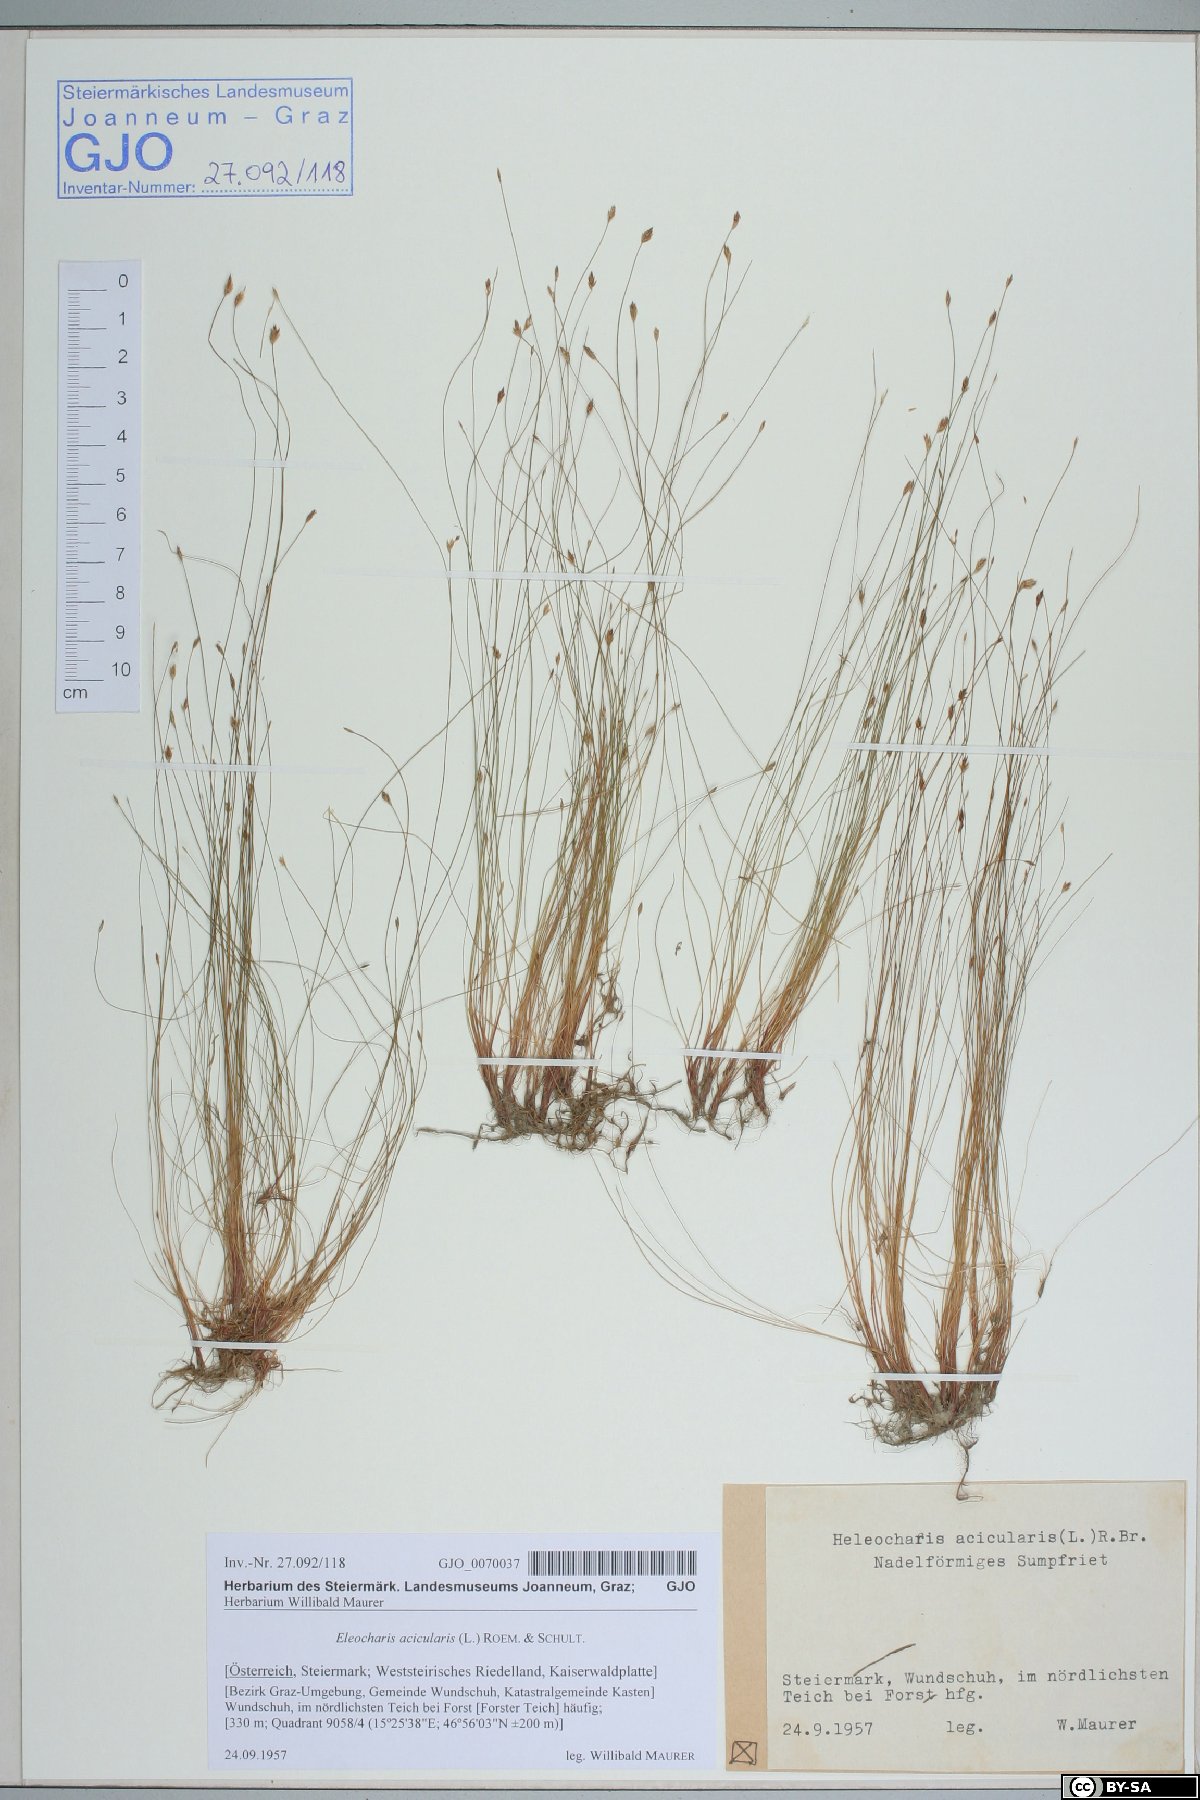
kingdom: Plantae
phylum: Tracheophyta
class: Liliopsida
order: Poales
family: Cyperaceae
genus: Eleocharis
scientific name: Eleocharis acicularis
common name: Needle spike-rush
